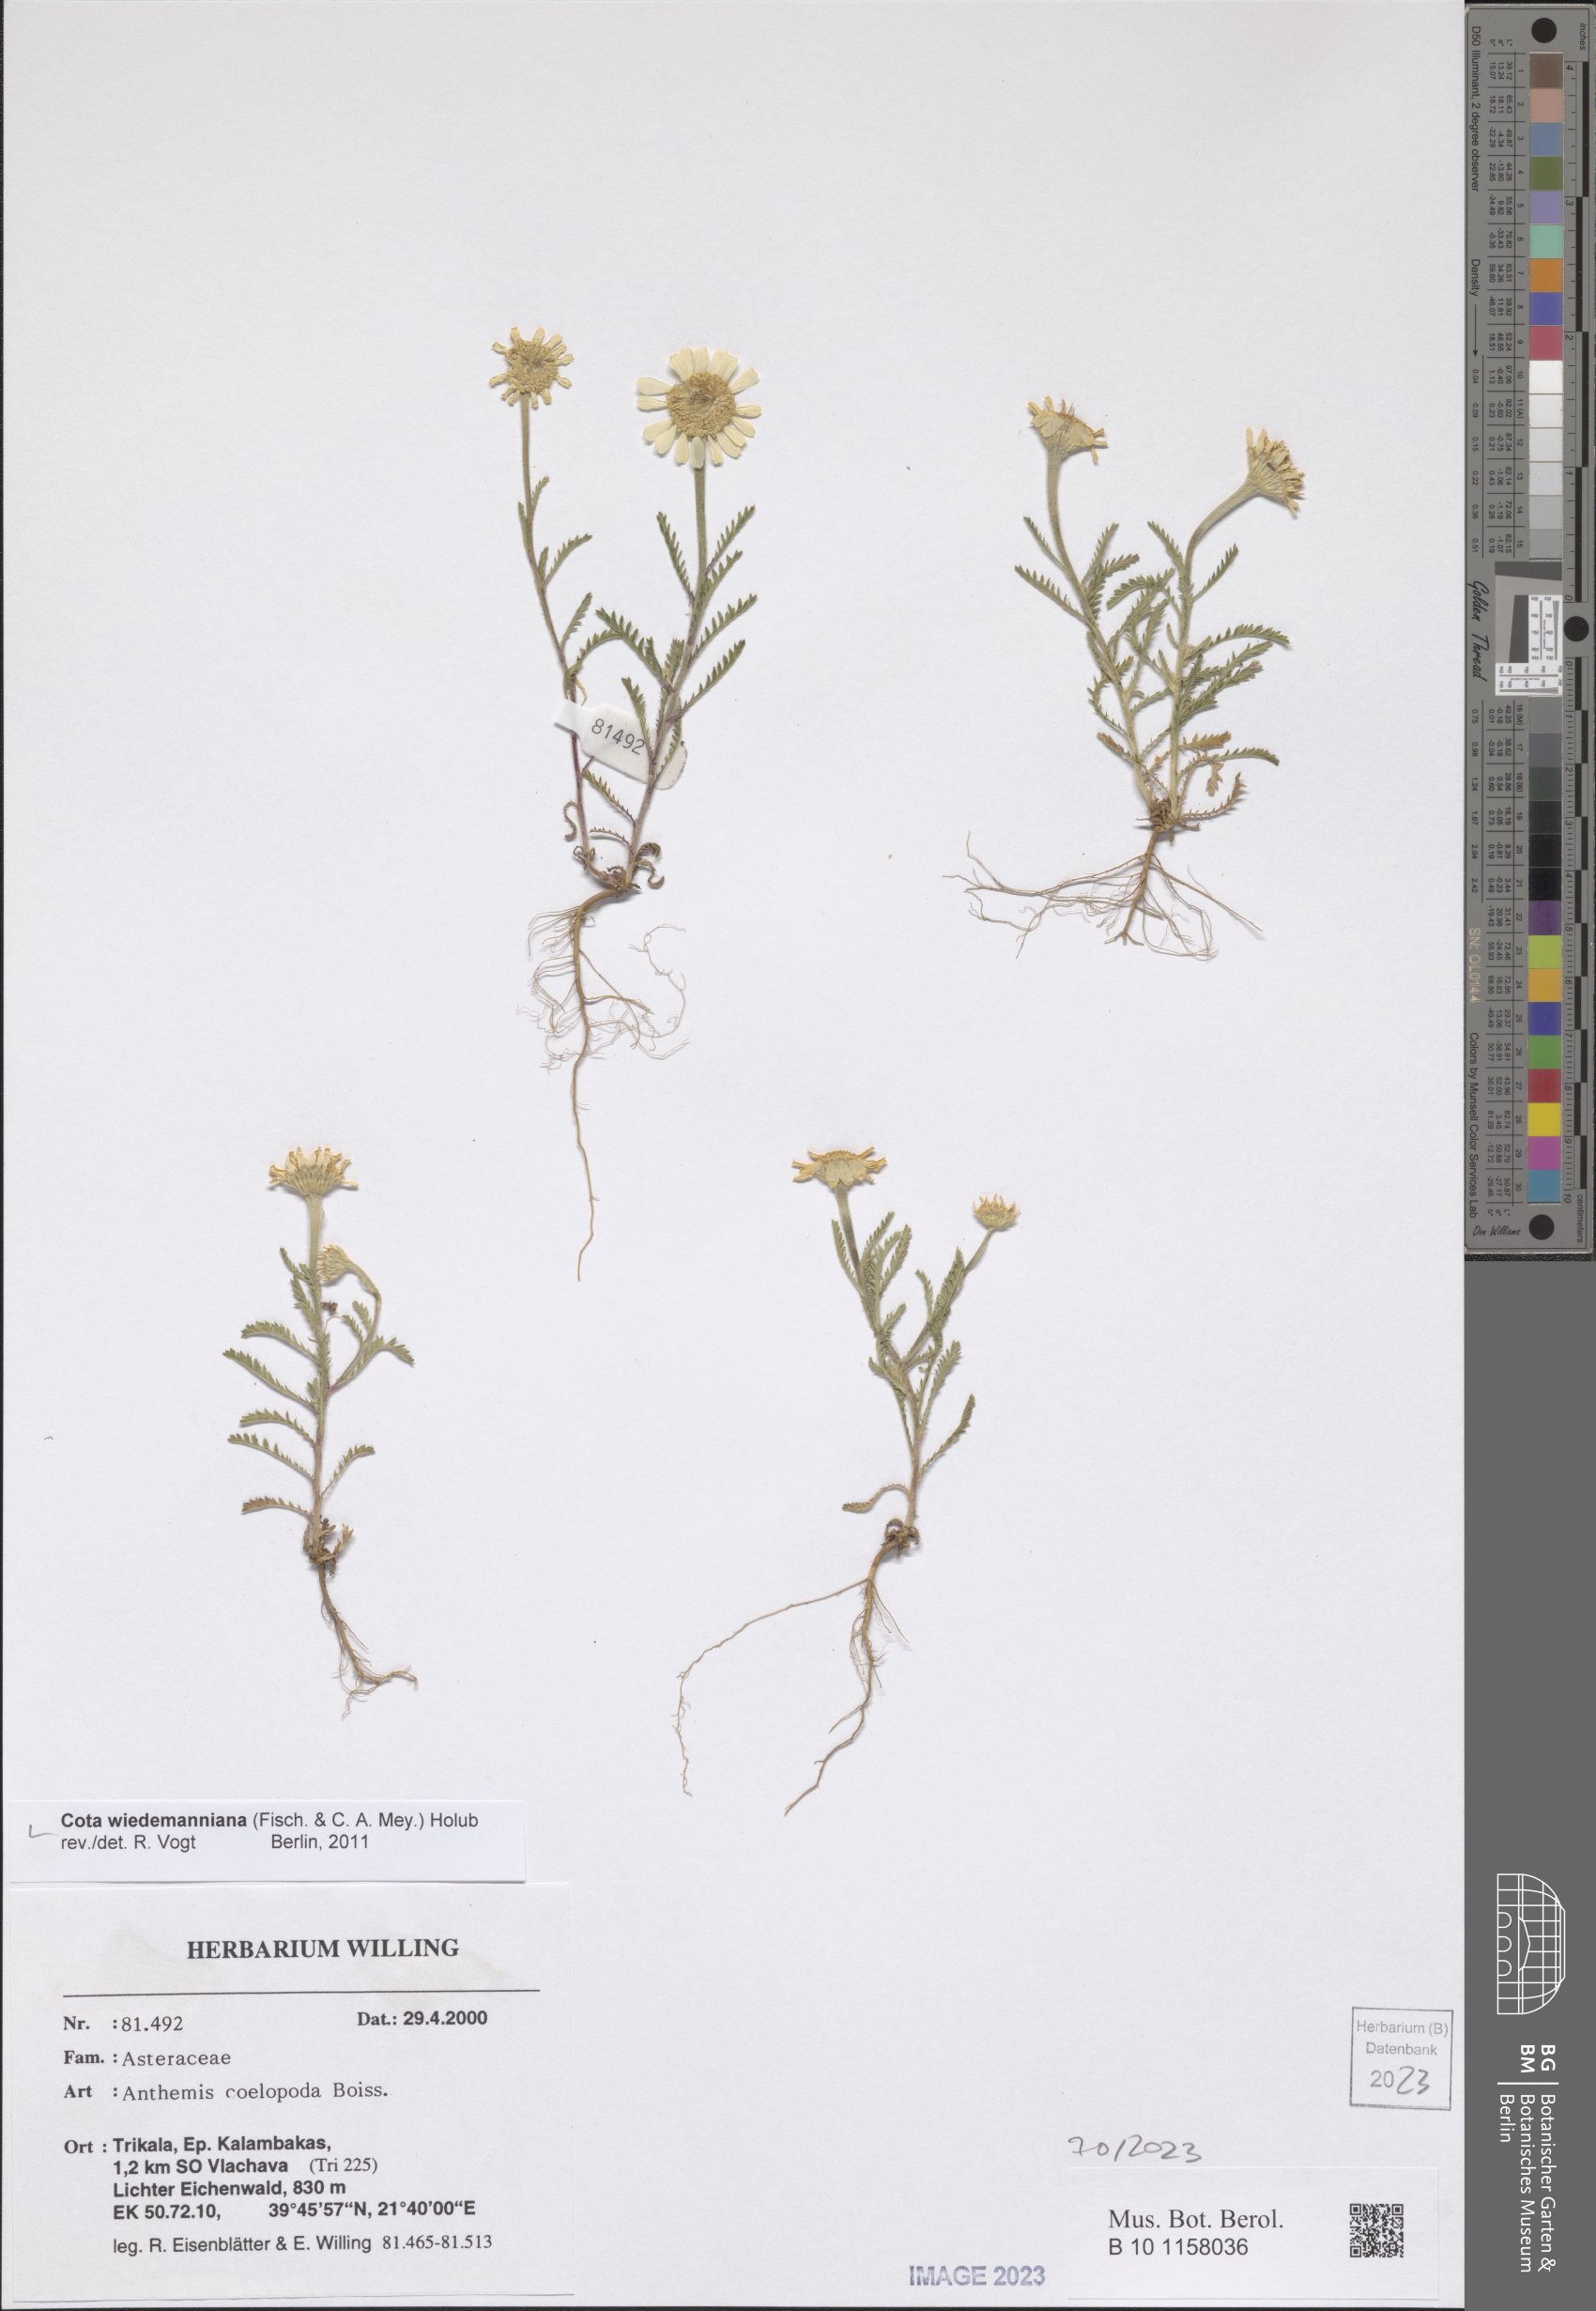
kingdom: Plantae
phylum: Tracheophyta
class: Magnoliopsida
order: Asterales
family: Asteraceae
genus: Cota
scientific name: Cota wiedemanniana
